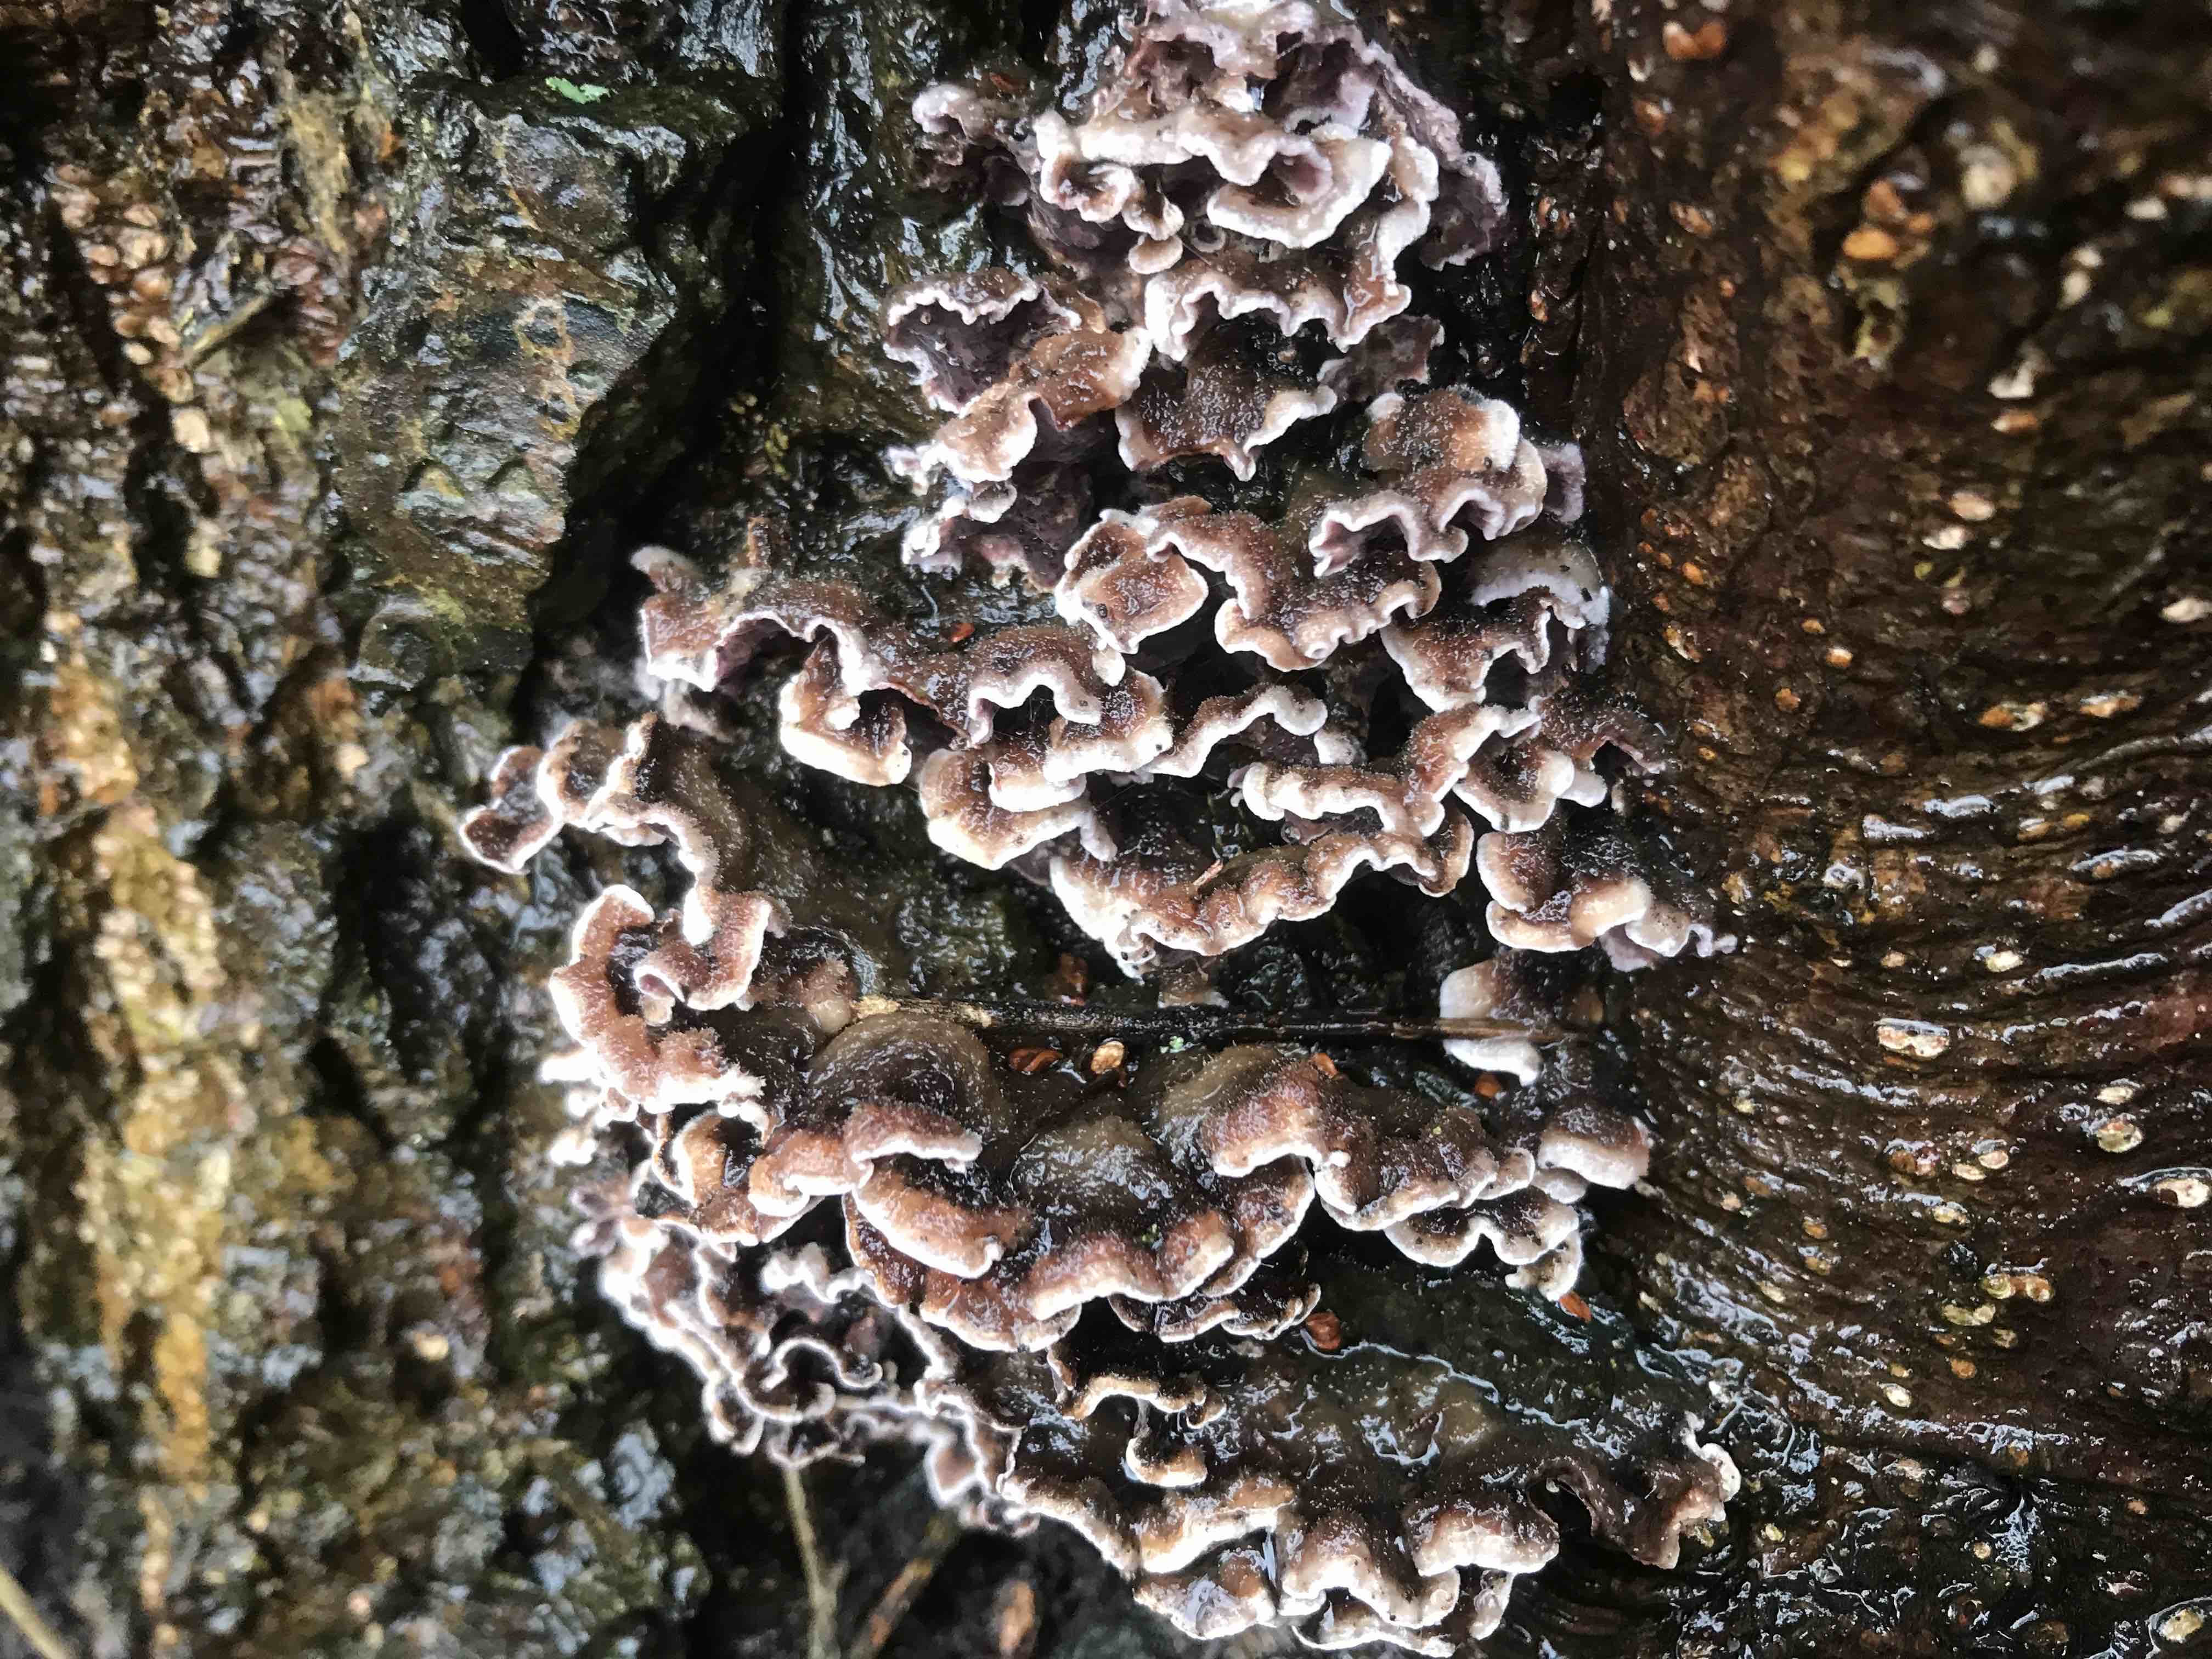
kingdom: Fungi
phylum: Basidiomycota
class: Agaricomycetes
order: Agaricales
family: Cyphellaceae
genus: Chondrostereum
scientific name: Chondrostereum purpureum
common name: purpurlædersvamp
